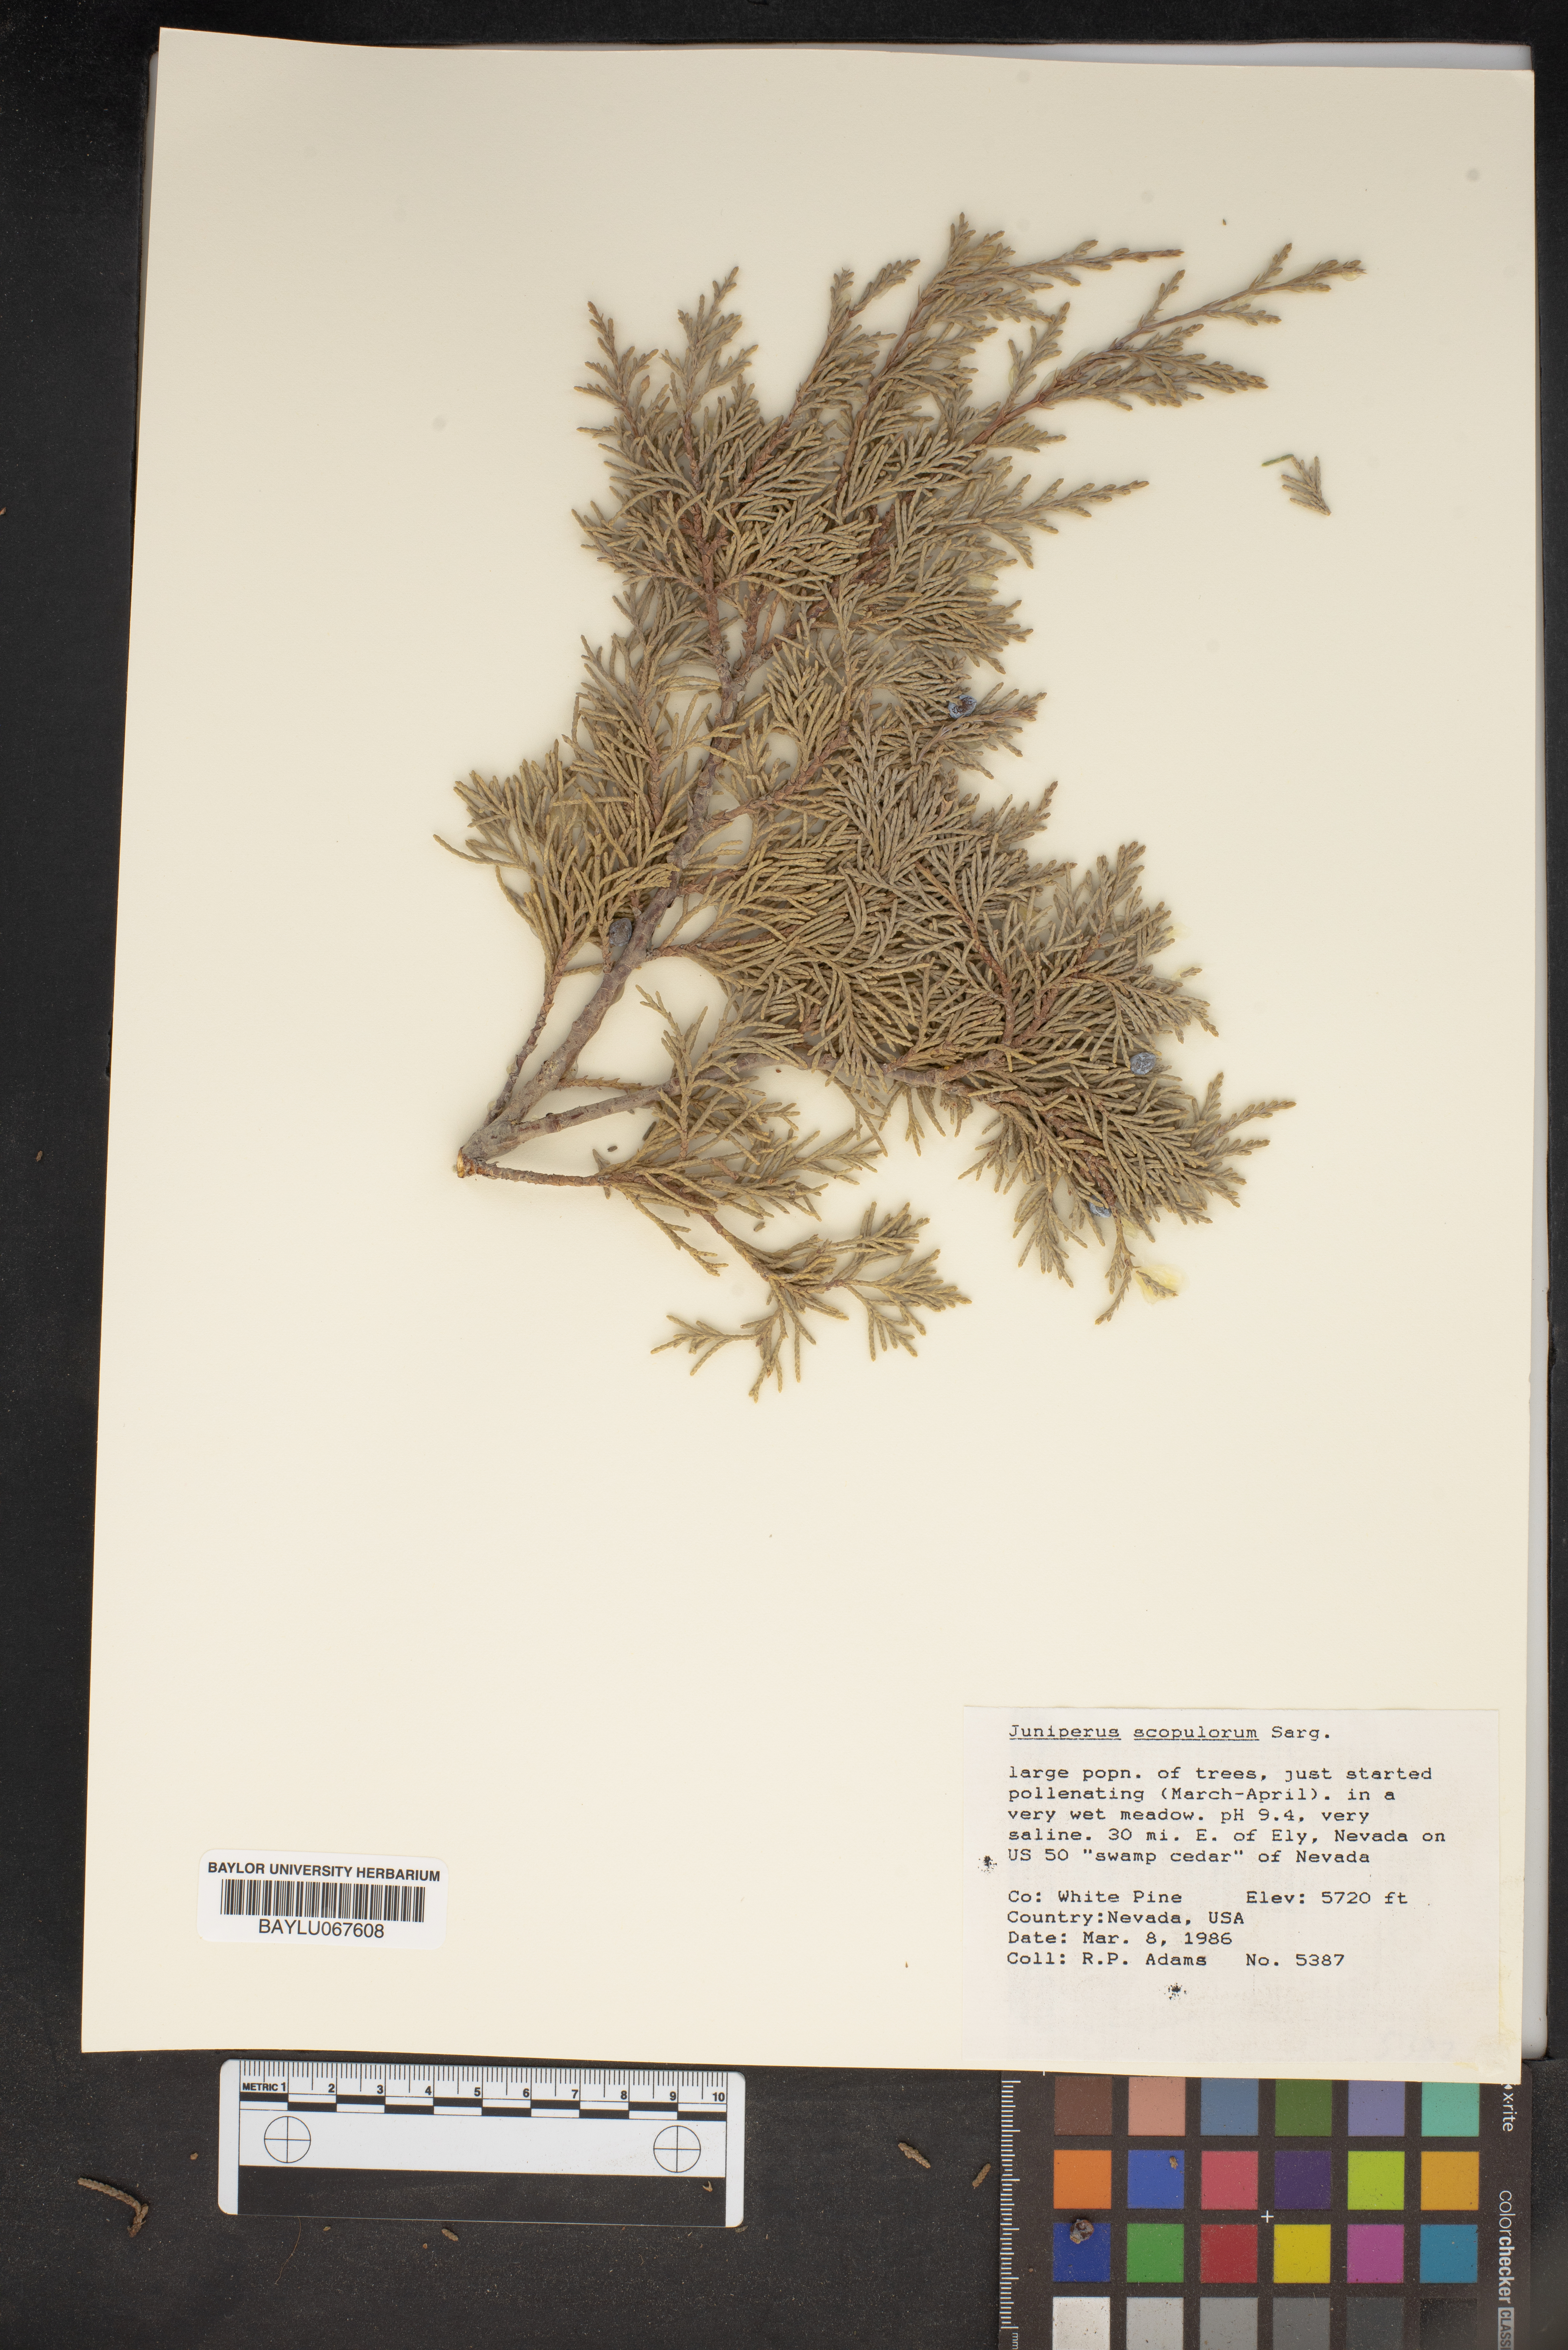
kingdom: Plantae
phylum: Tracheophyta
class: Pinopsida
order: Pinales
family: Cupressaceae
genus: Juniperus
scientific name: Juniperus scopulorum
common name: Rocky mountain juniper
